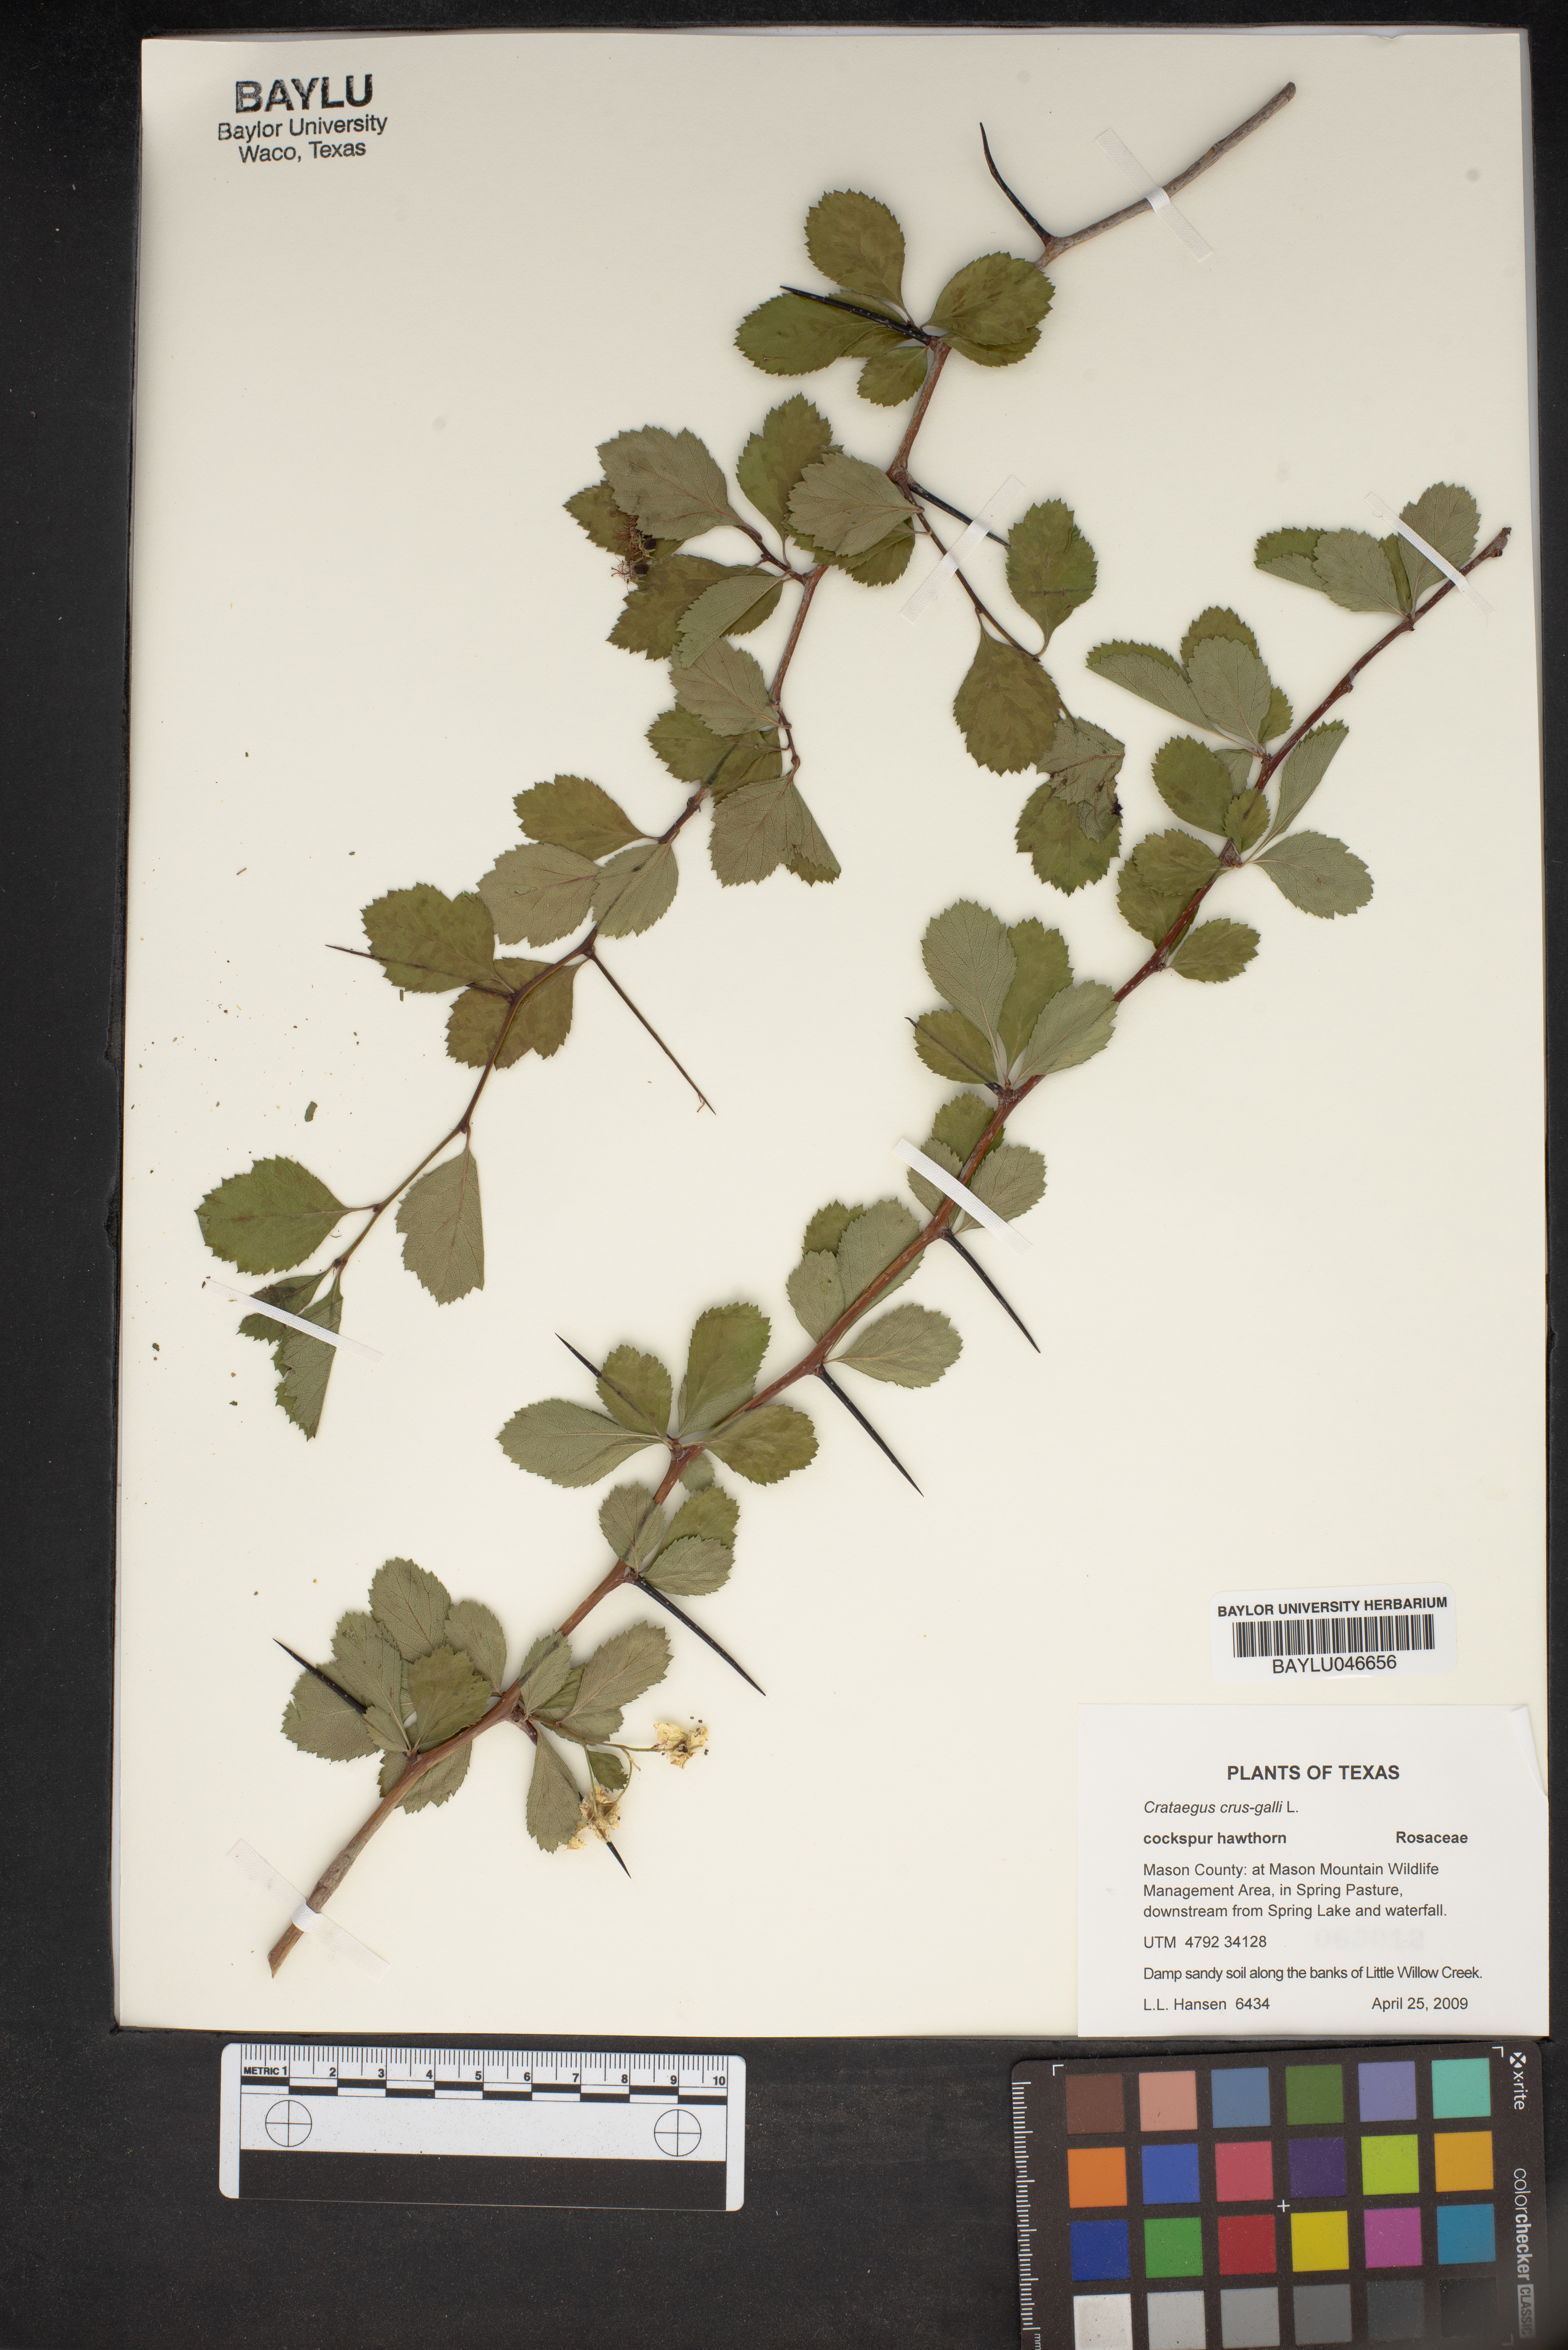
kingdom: Plantae
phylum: Tracheophyta
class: Magnoliopsida
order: Rosales
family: Rosaceae
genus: Crataegus
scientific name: Crataegus crus-galli
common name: Cockspurthorn
